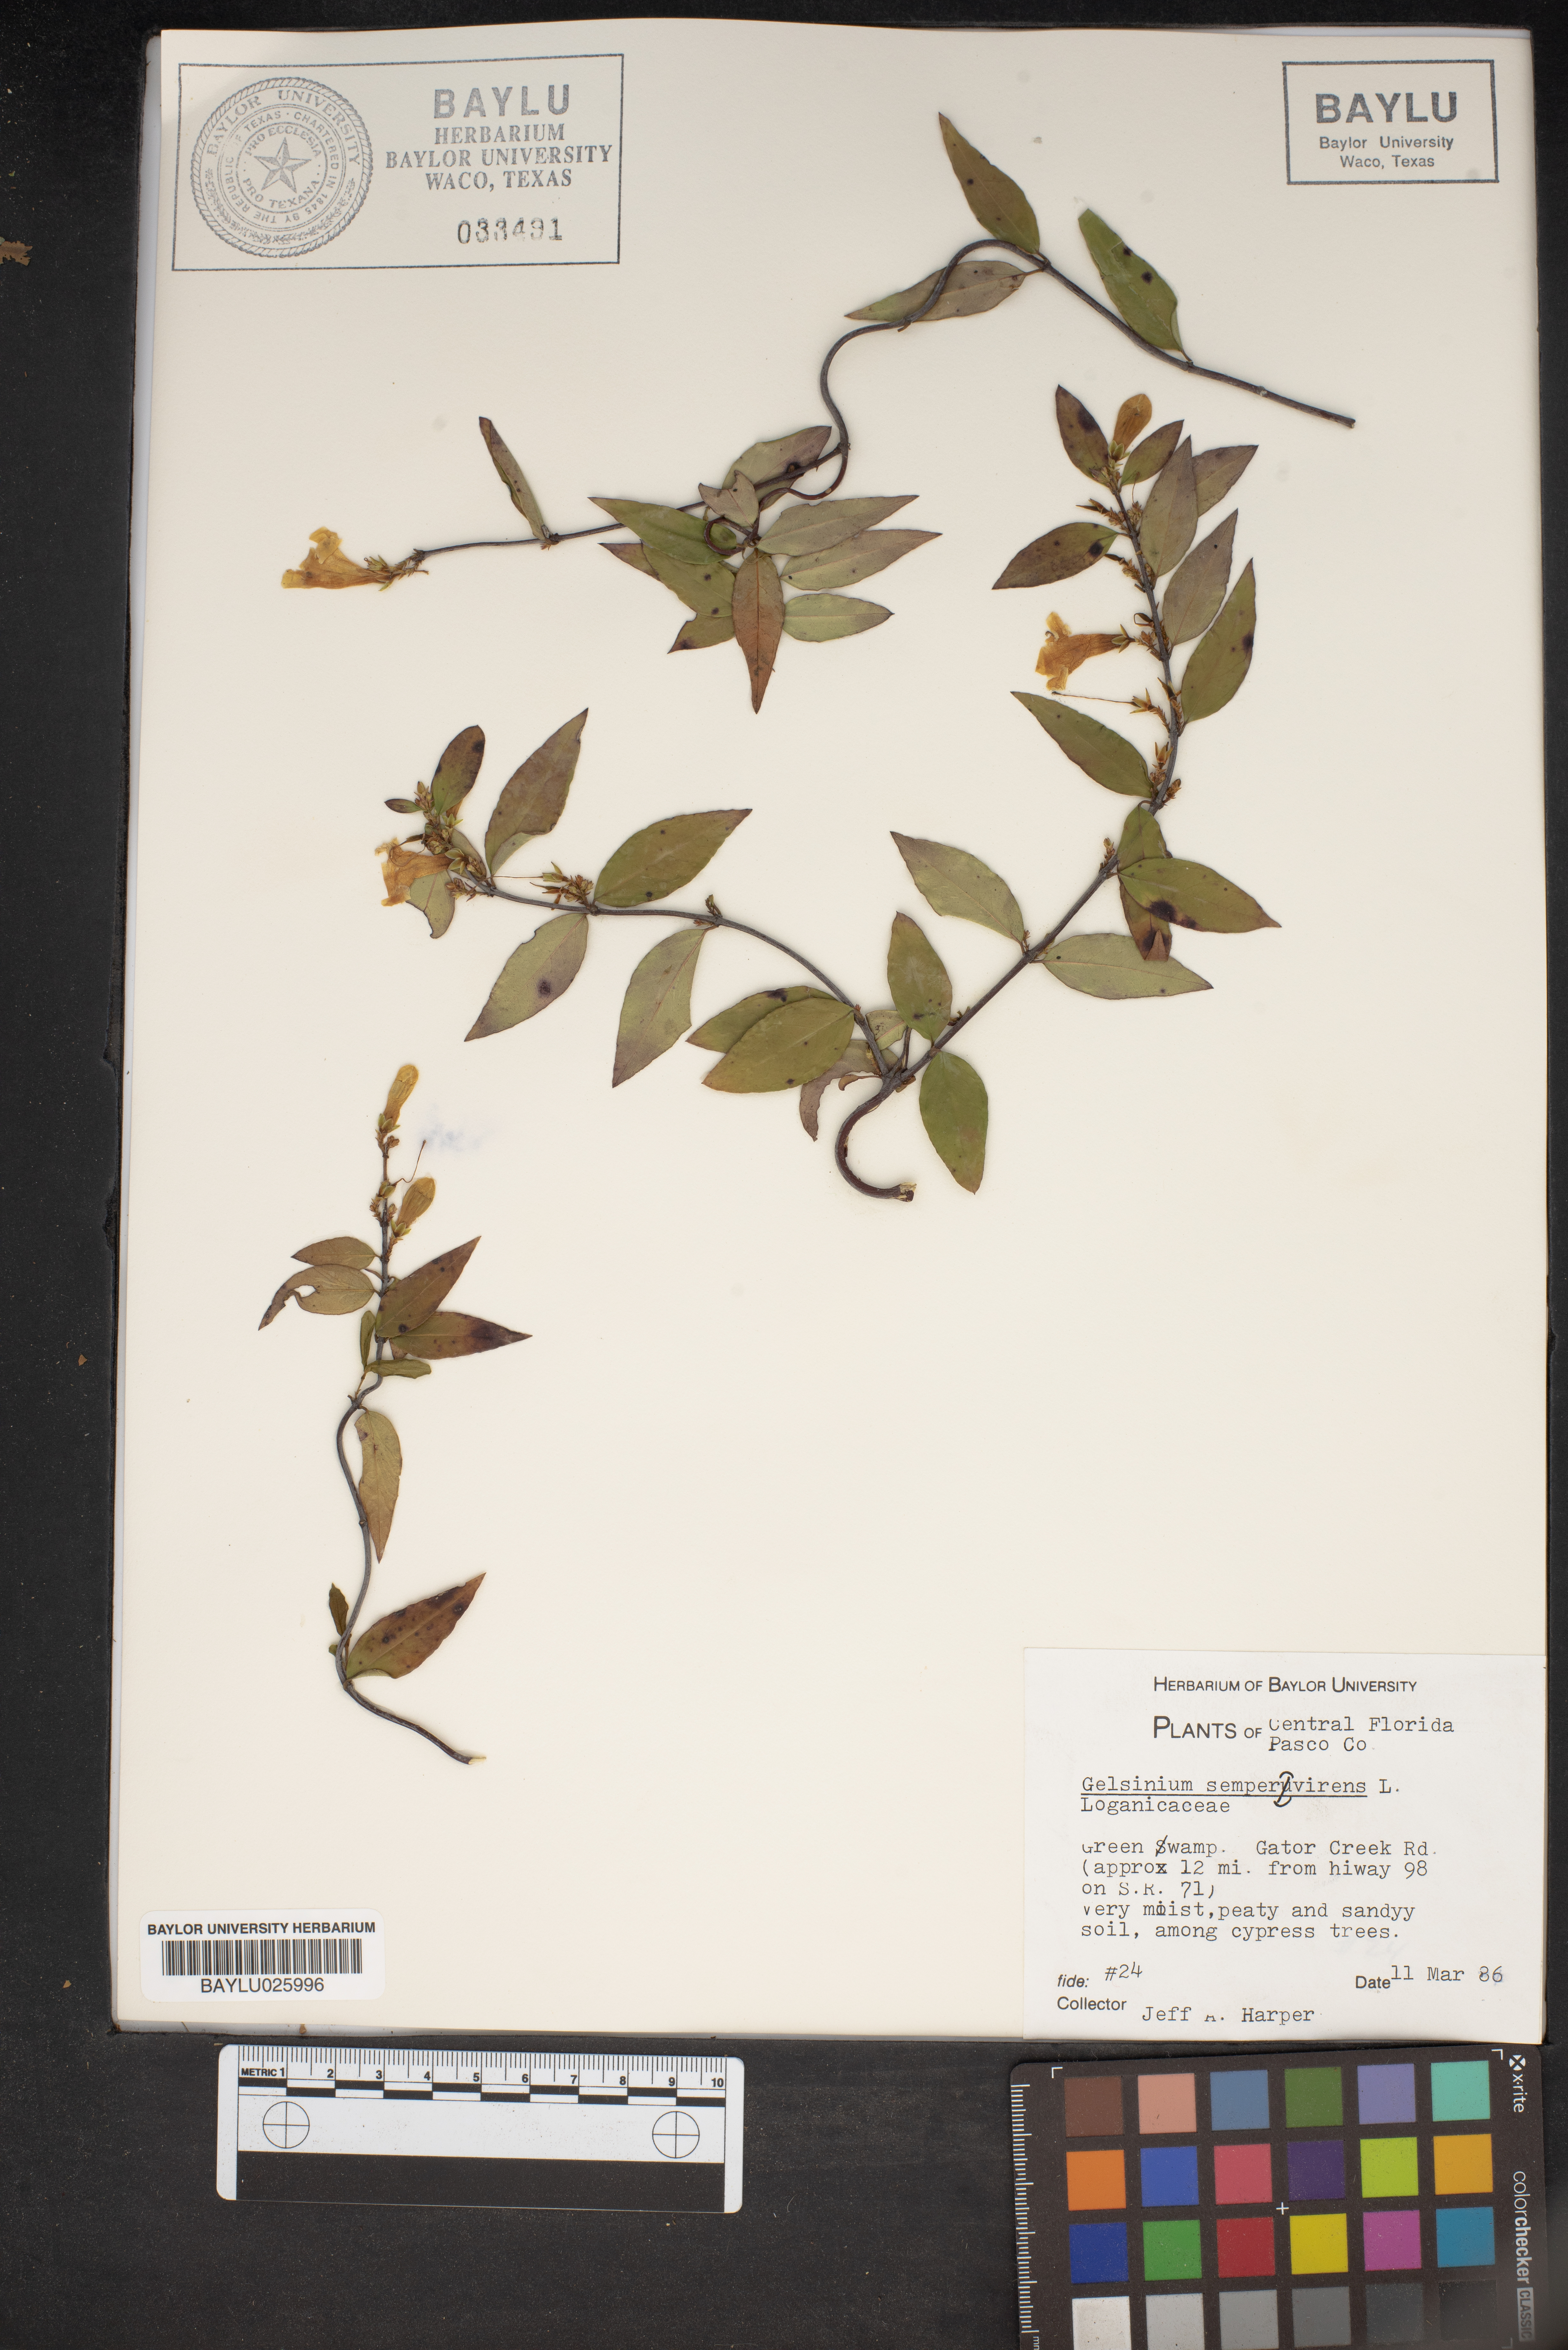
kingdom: Plantae
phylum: Tracheophyta
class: Magnoliopsida
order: Gentianales
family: Gelsemiaceae
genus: Gelsemium
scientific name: Gelsemium sempervirens
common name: Carolina-jasmine
